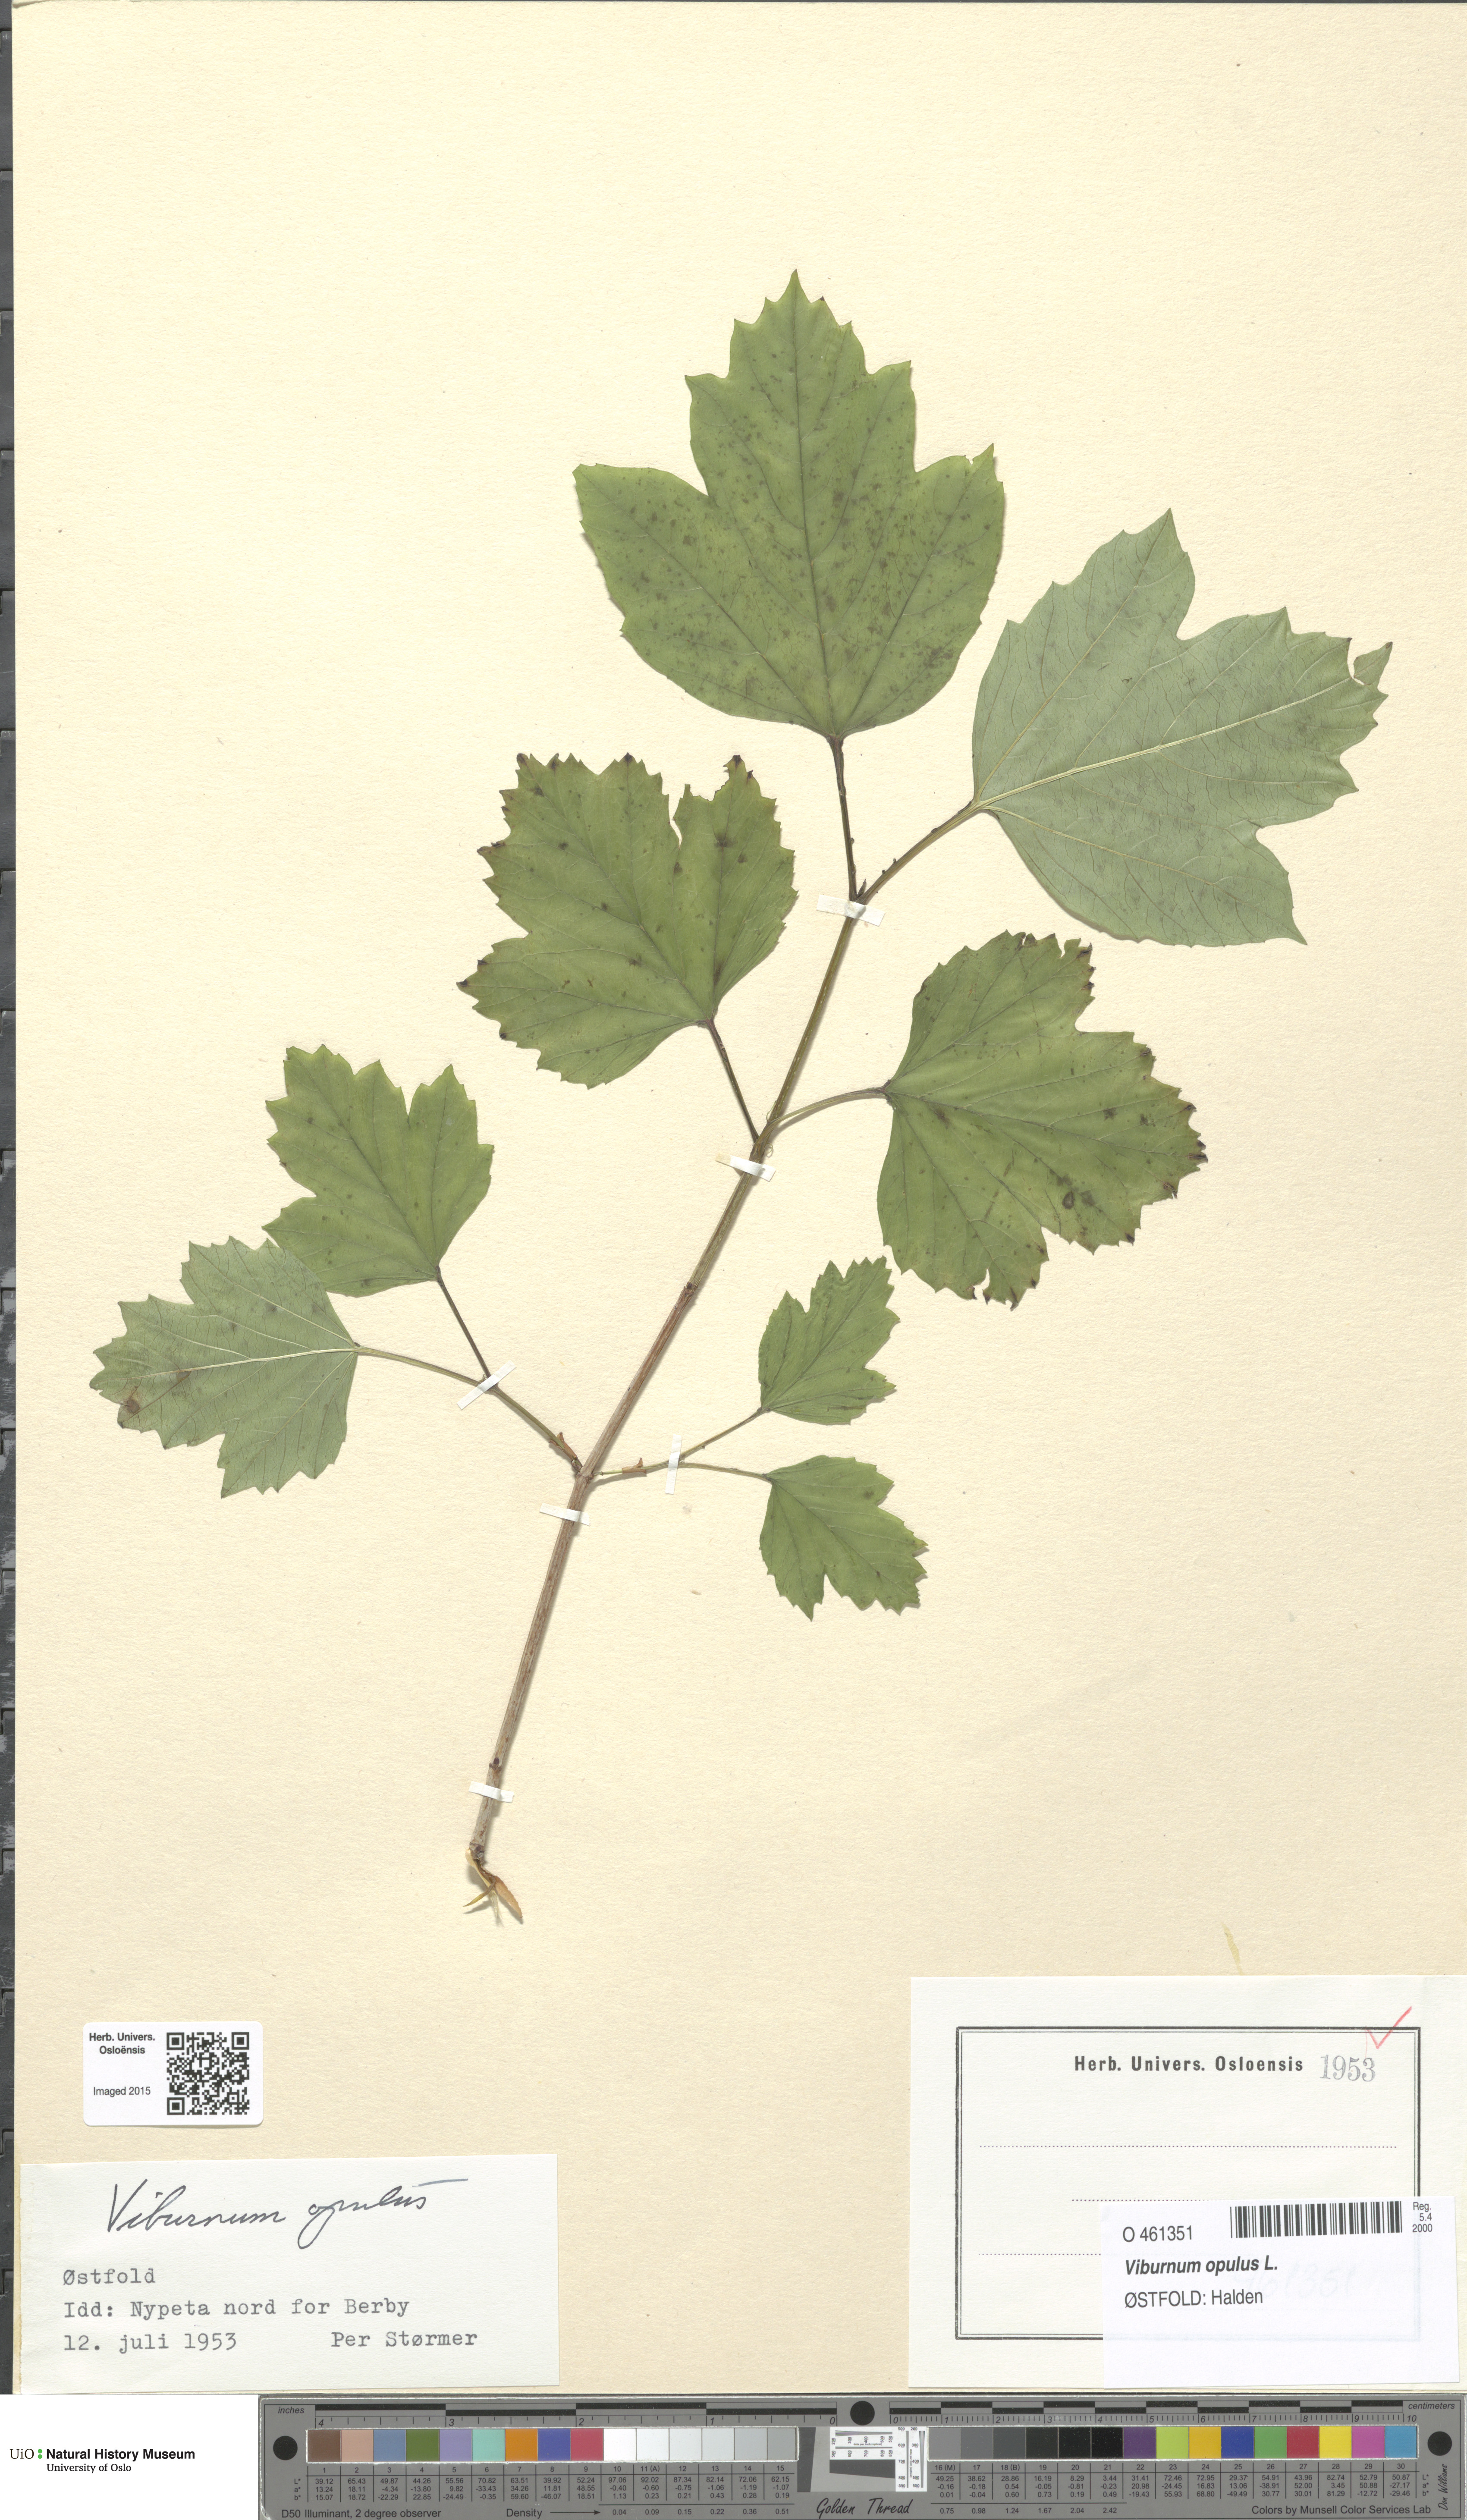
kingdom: Plantae
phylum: Tracheophyta
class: Magnoliopsida
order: Dipsacales
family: Viburnaceae
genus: Viburnum
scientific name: Viburnum opulus
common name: Guelder-rose
